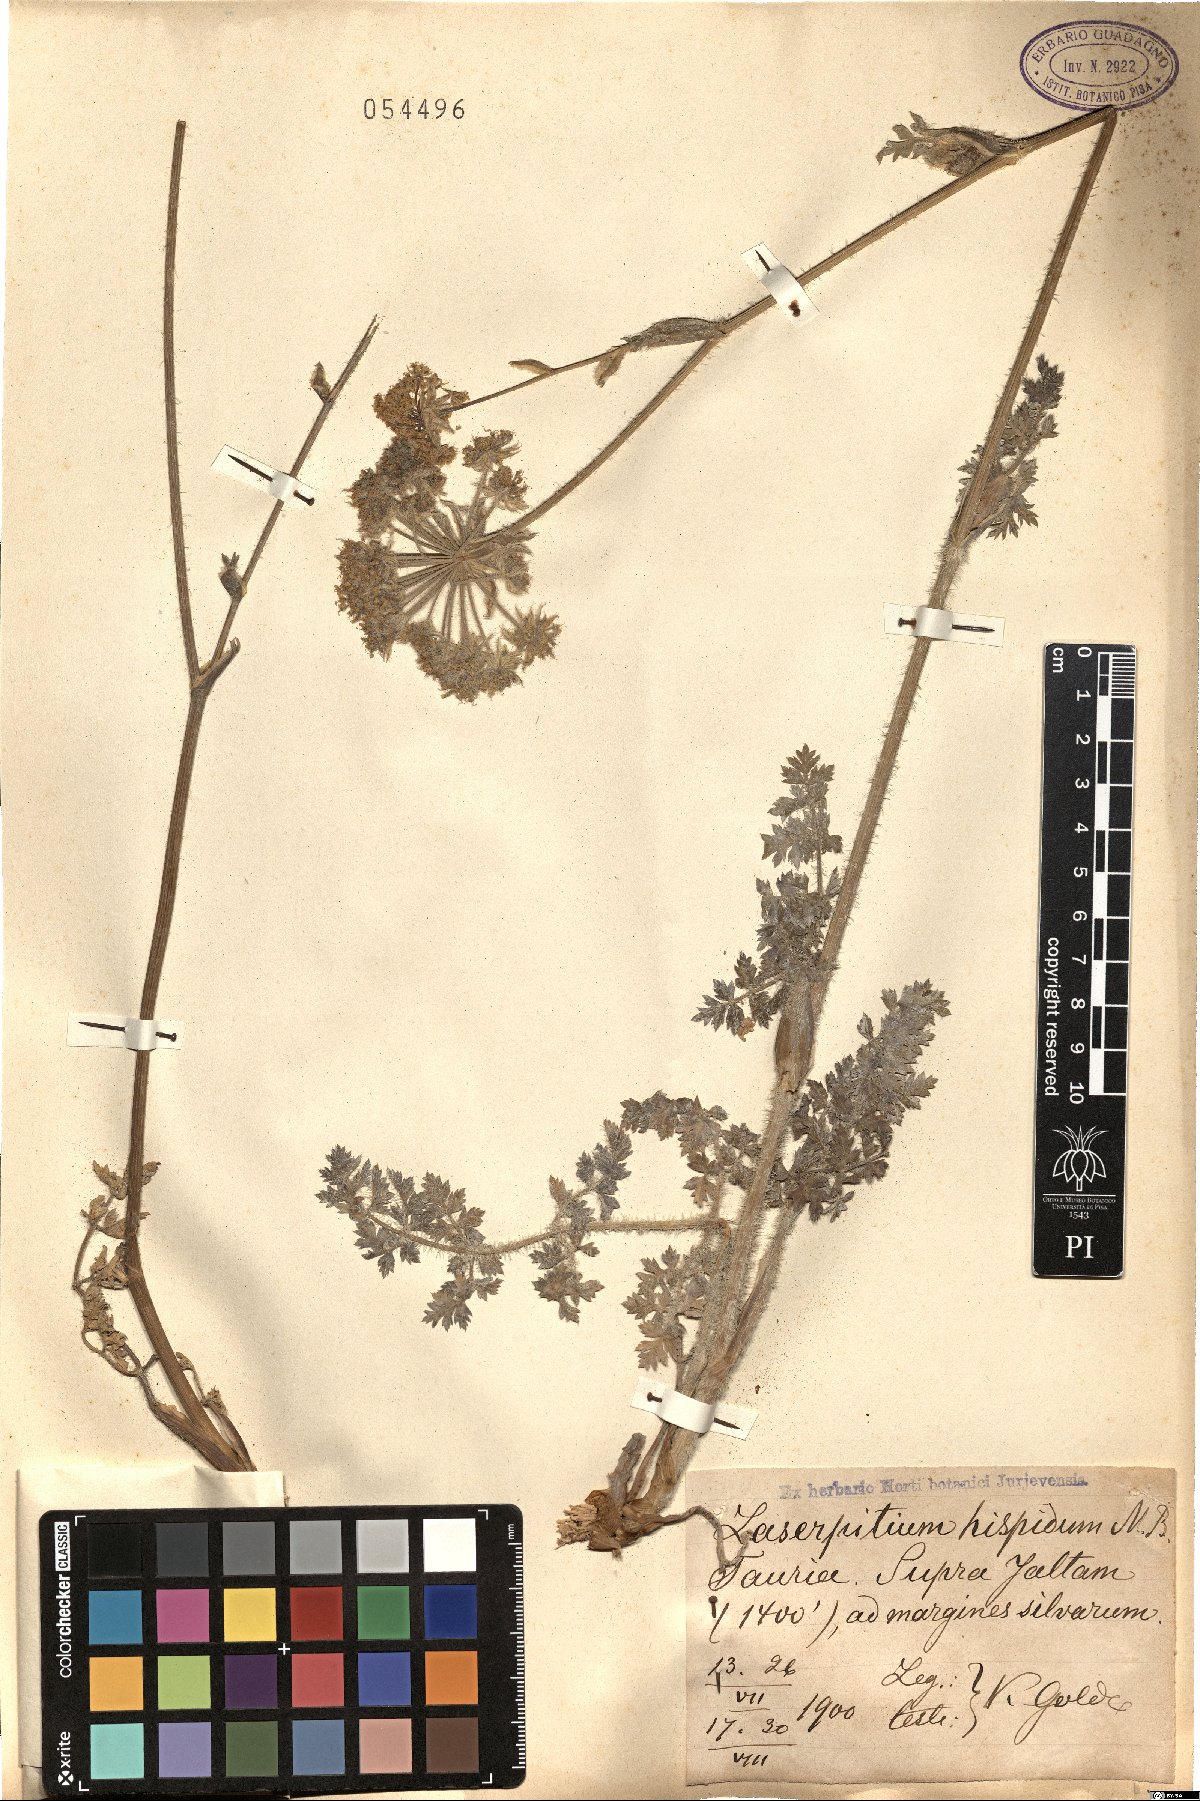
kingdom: Plantae
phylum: Tracheophyta
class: Magnoliopsida
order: Apiales
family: Apiaceae
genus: Silphiodaucus
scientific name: Silphiodaucus hispidus
